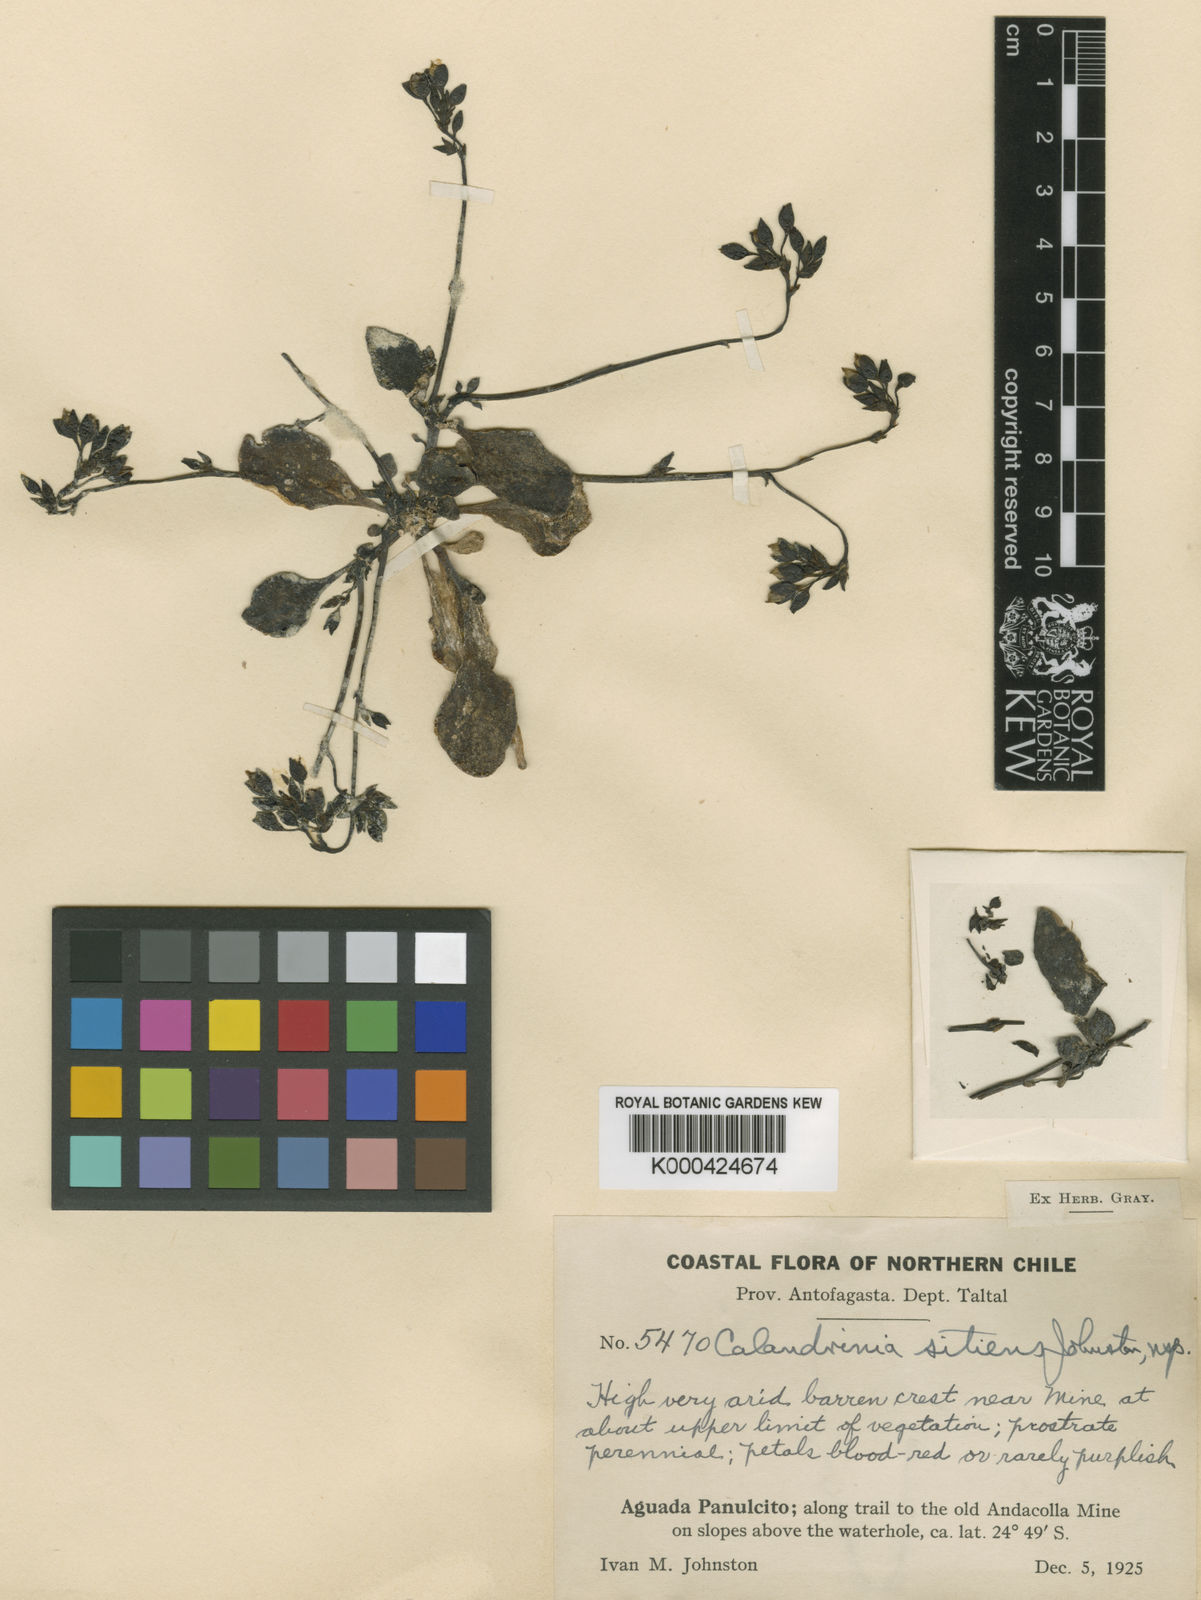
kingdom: Plantae
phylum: Tracheophyta
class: Magnoliopsida
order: Caryophyllales
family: Montiaceae
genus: Cistanthe
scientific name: Cistanthe sitiens
